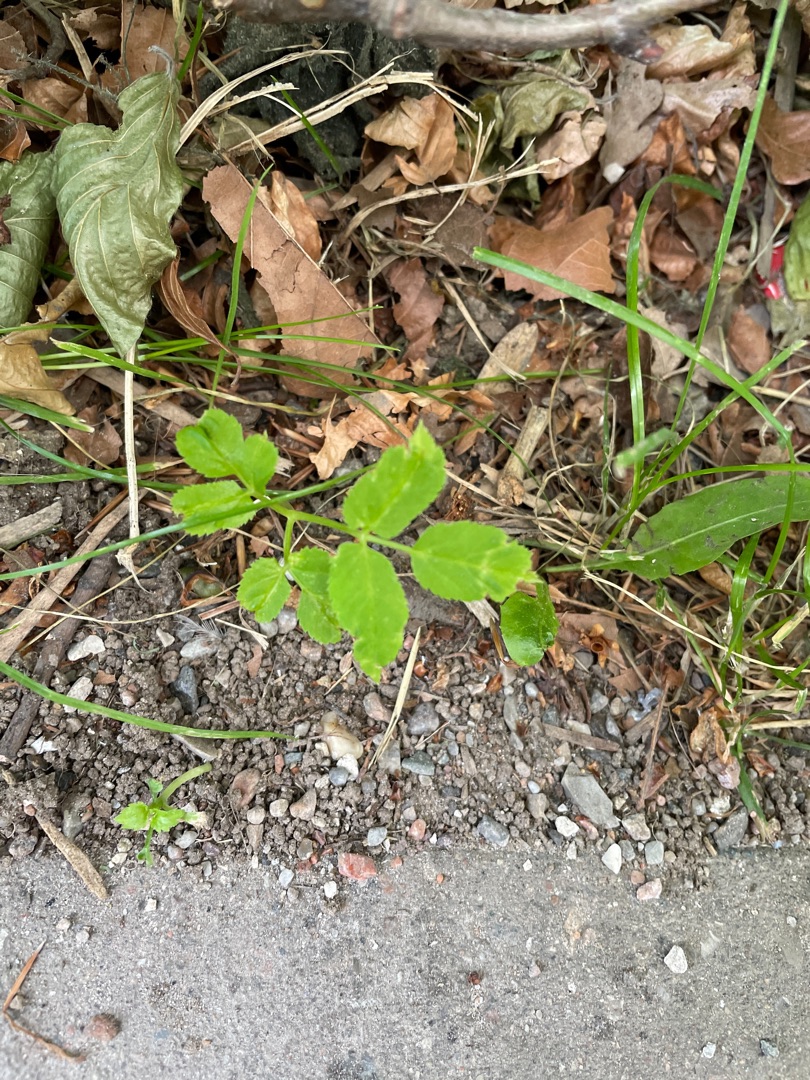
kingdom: Plantae
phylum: Tracheophyta
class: Magnoliopsida
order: Apiales
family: Apiaceae
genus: Aegopodium
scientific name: Aegopodium podagraria
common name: Skvalderkål
